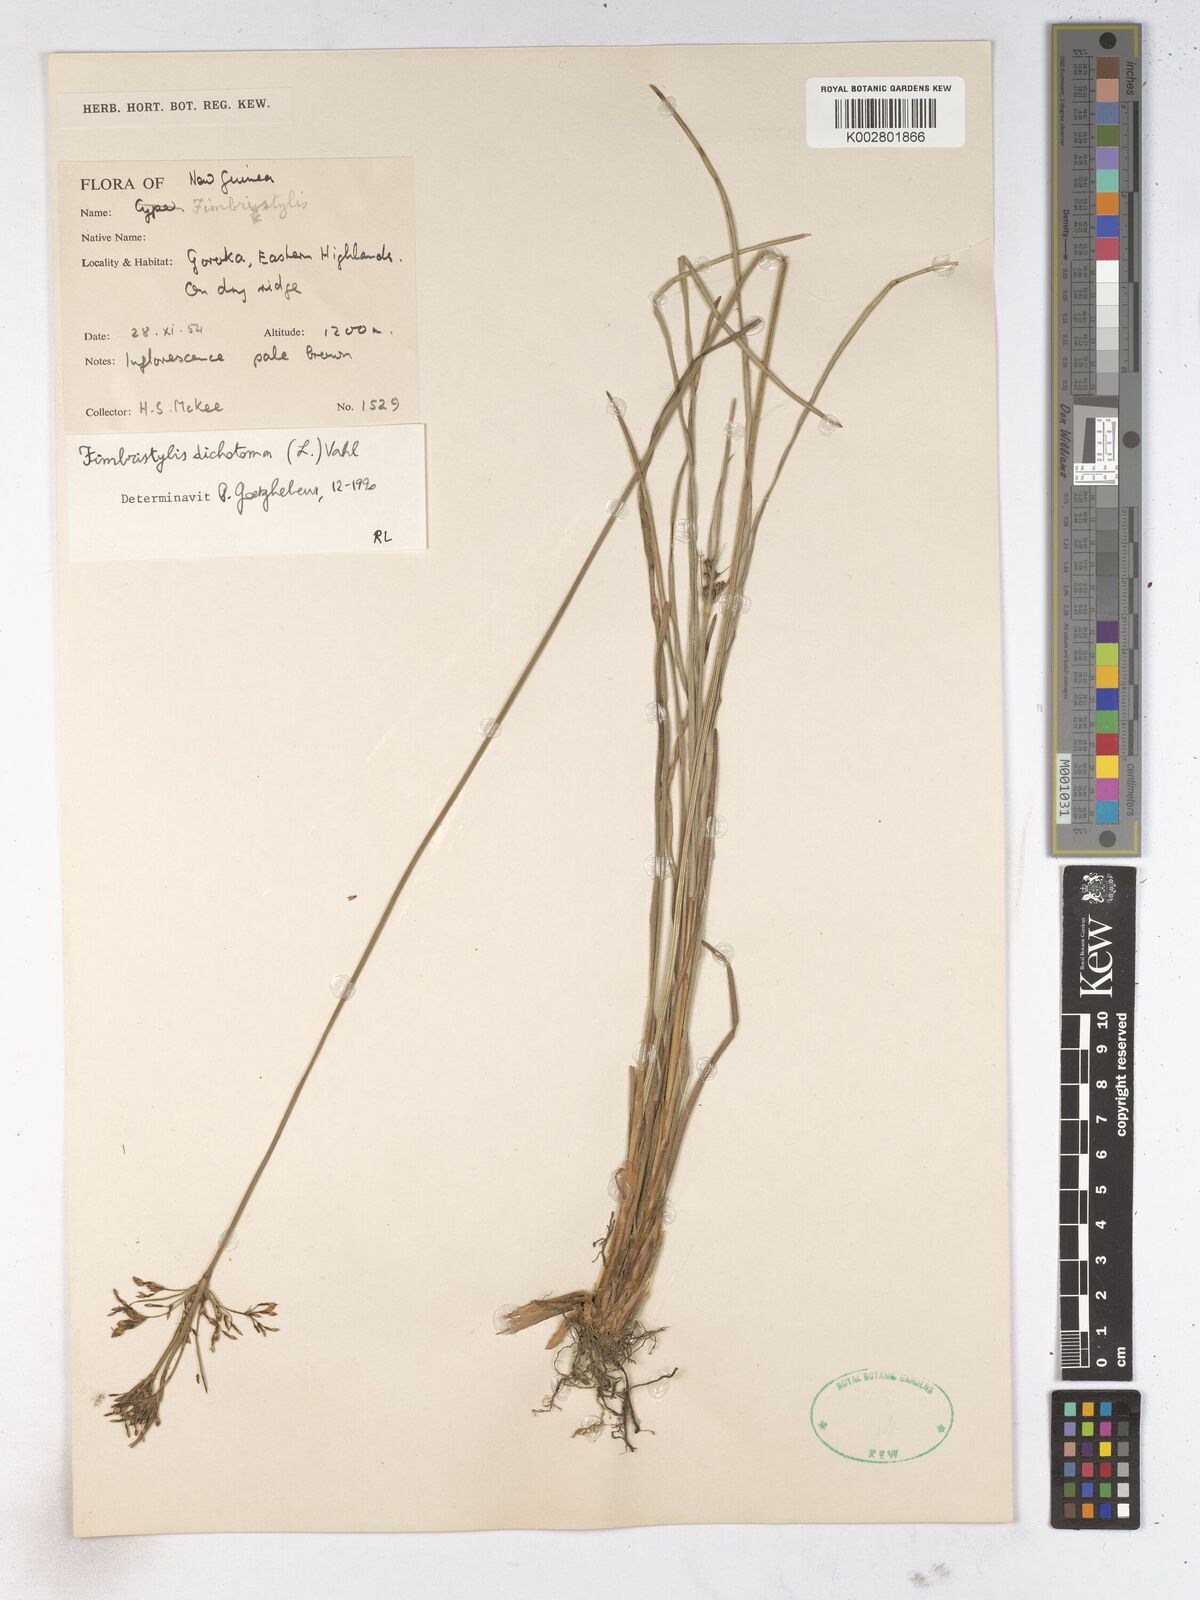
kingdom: Plantae
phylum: Tracheophyta
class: Liliopsida
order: Poales
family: Cyperaceae
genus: Fimbristylis
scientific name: Fimbristylis dichotoma
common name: Forked fimbry
